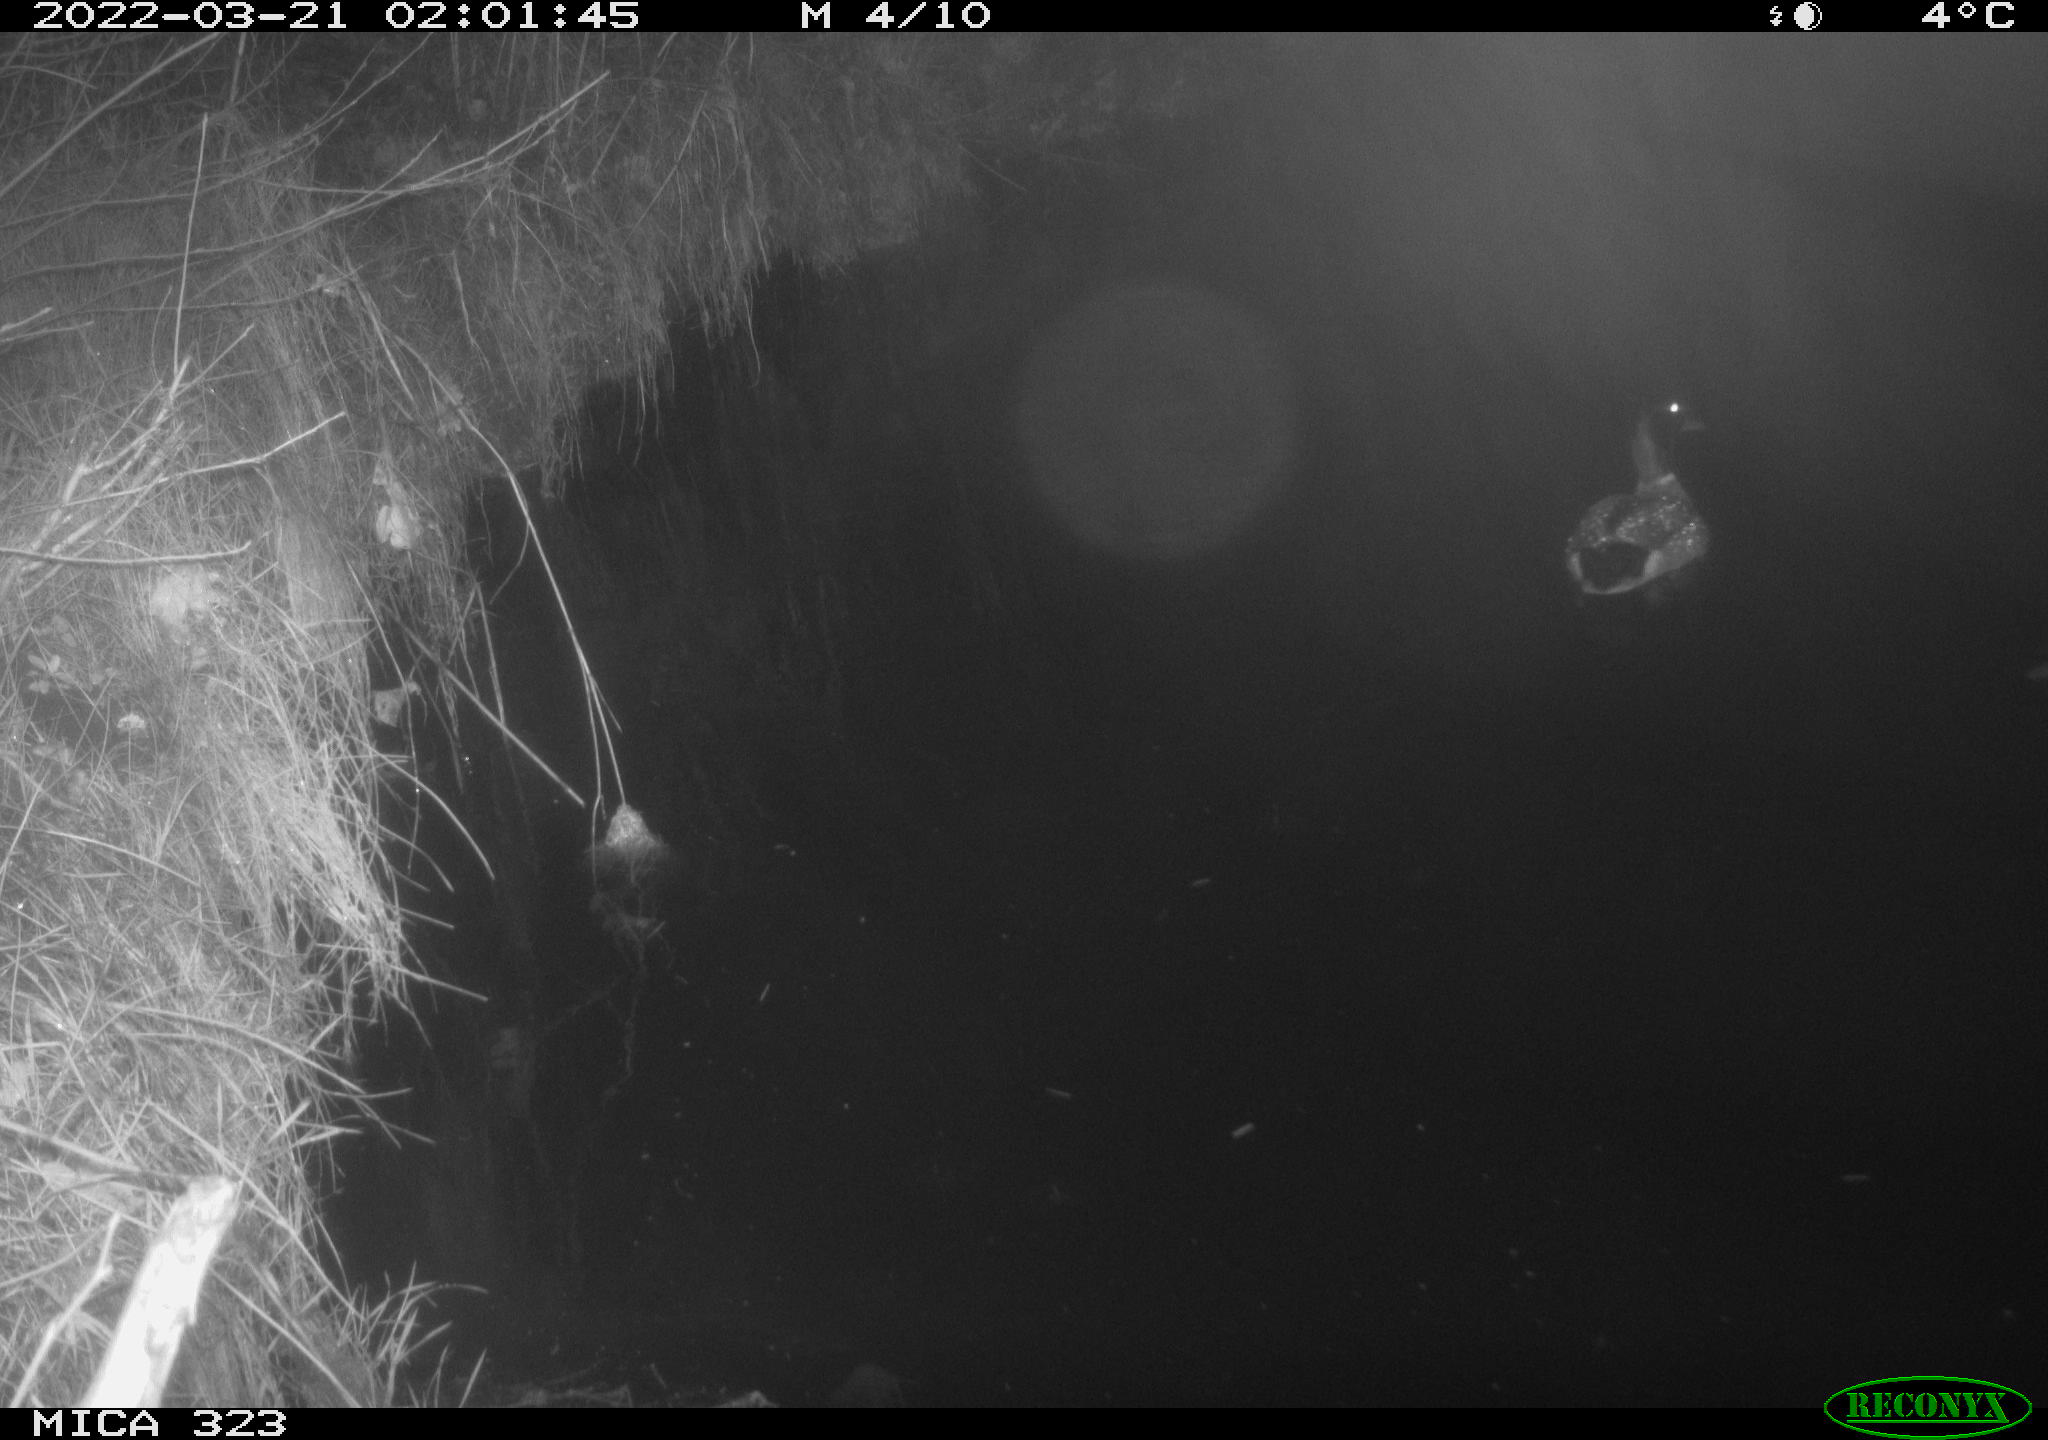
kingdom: Animalia
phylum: Chordata
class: Aves
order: Anseriformes
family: Anatidae
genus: Anas
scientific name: Anas
